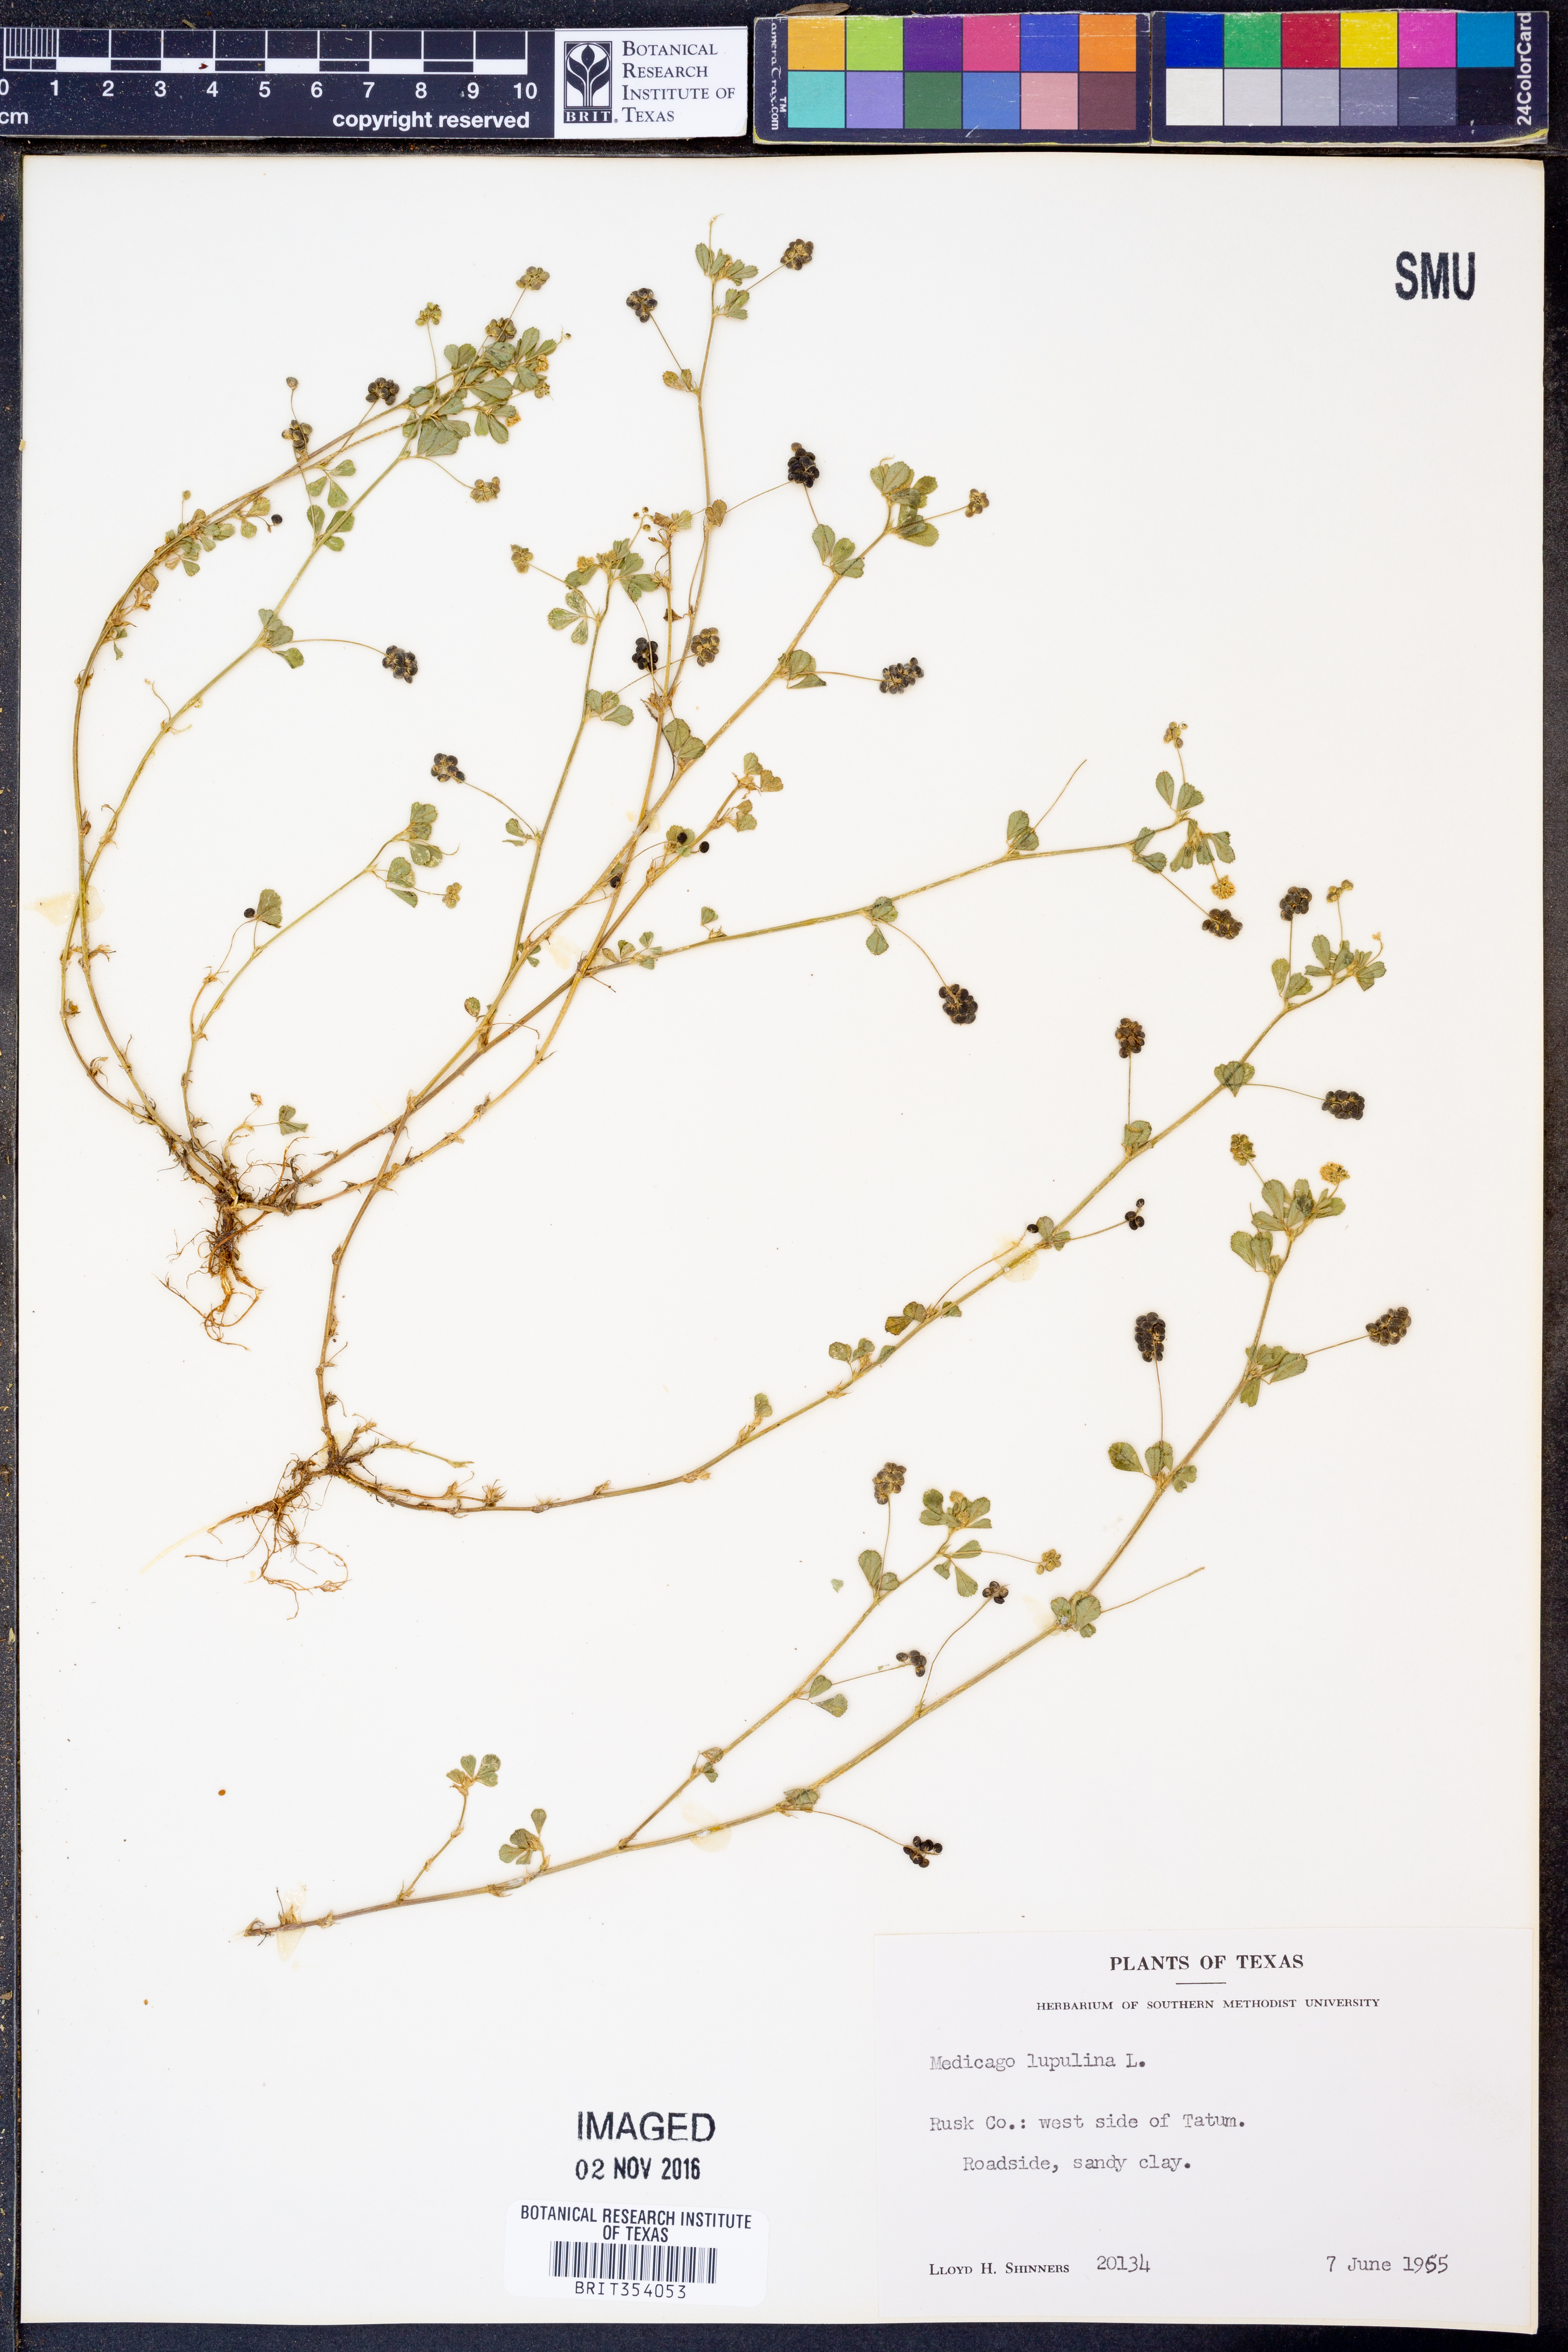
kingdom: Plantae
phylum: Tracheophyta
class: Magnoliopsida
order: Fabales
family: Fabaceae
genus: Medicago
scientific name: Medicago lupulina
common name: Black medick
